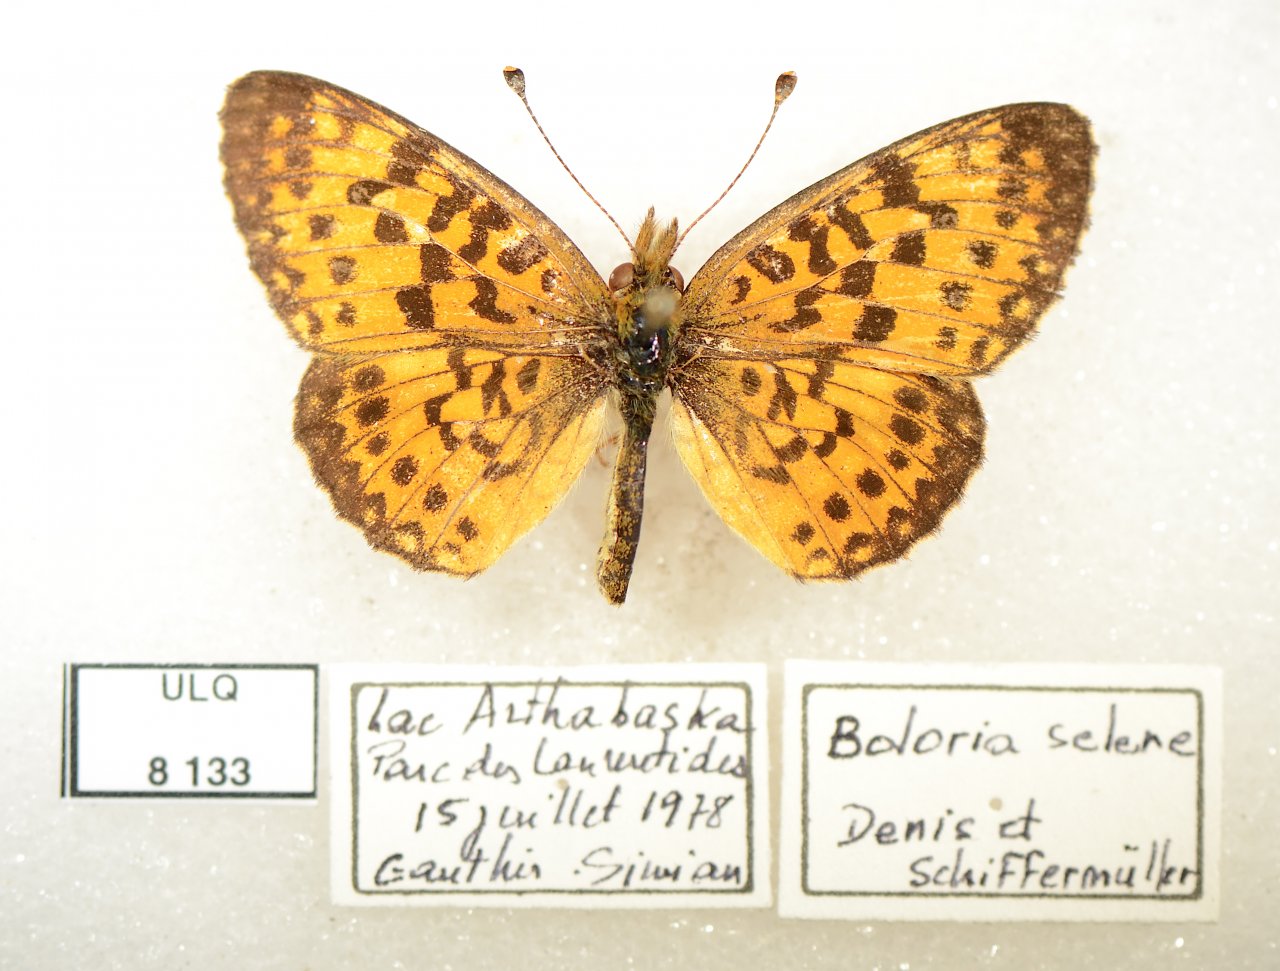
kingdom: Animalia
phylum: Arthropoda
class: Insecta
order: Lepidoptera
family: Nymphalidae
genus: Boloria
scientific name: Boloria selene
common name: Silver-bordered Fritillary
